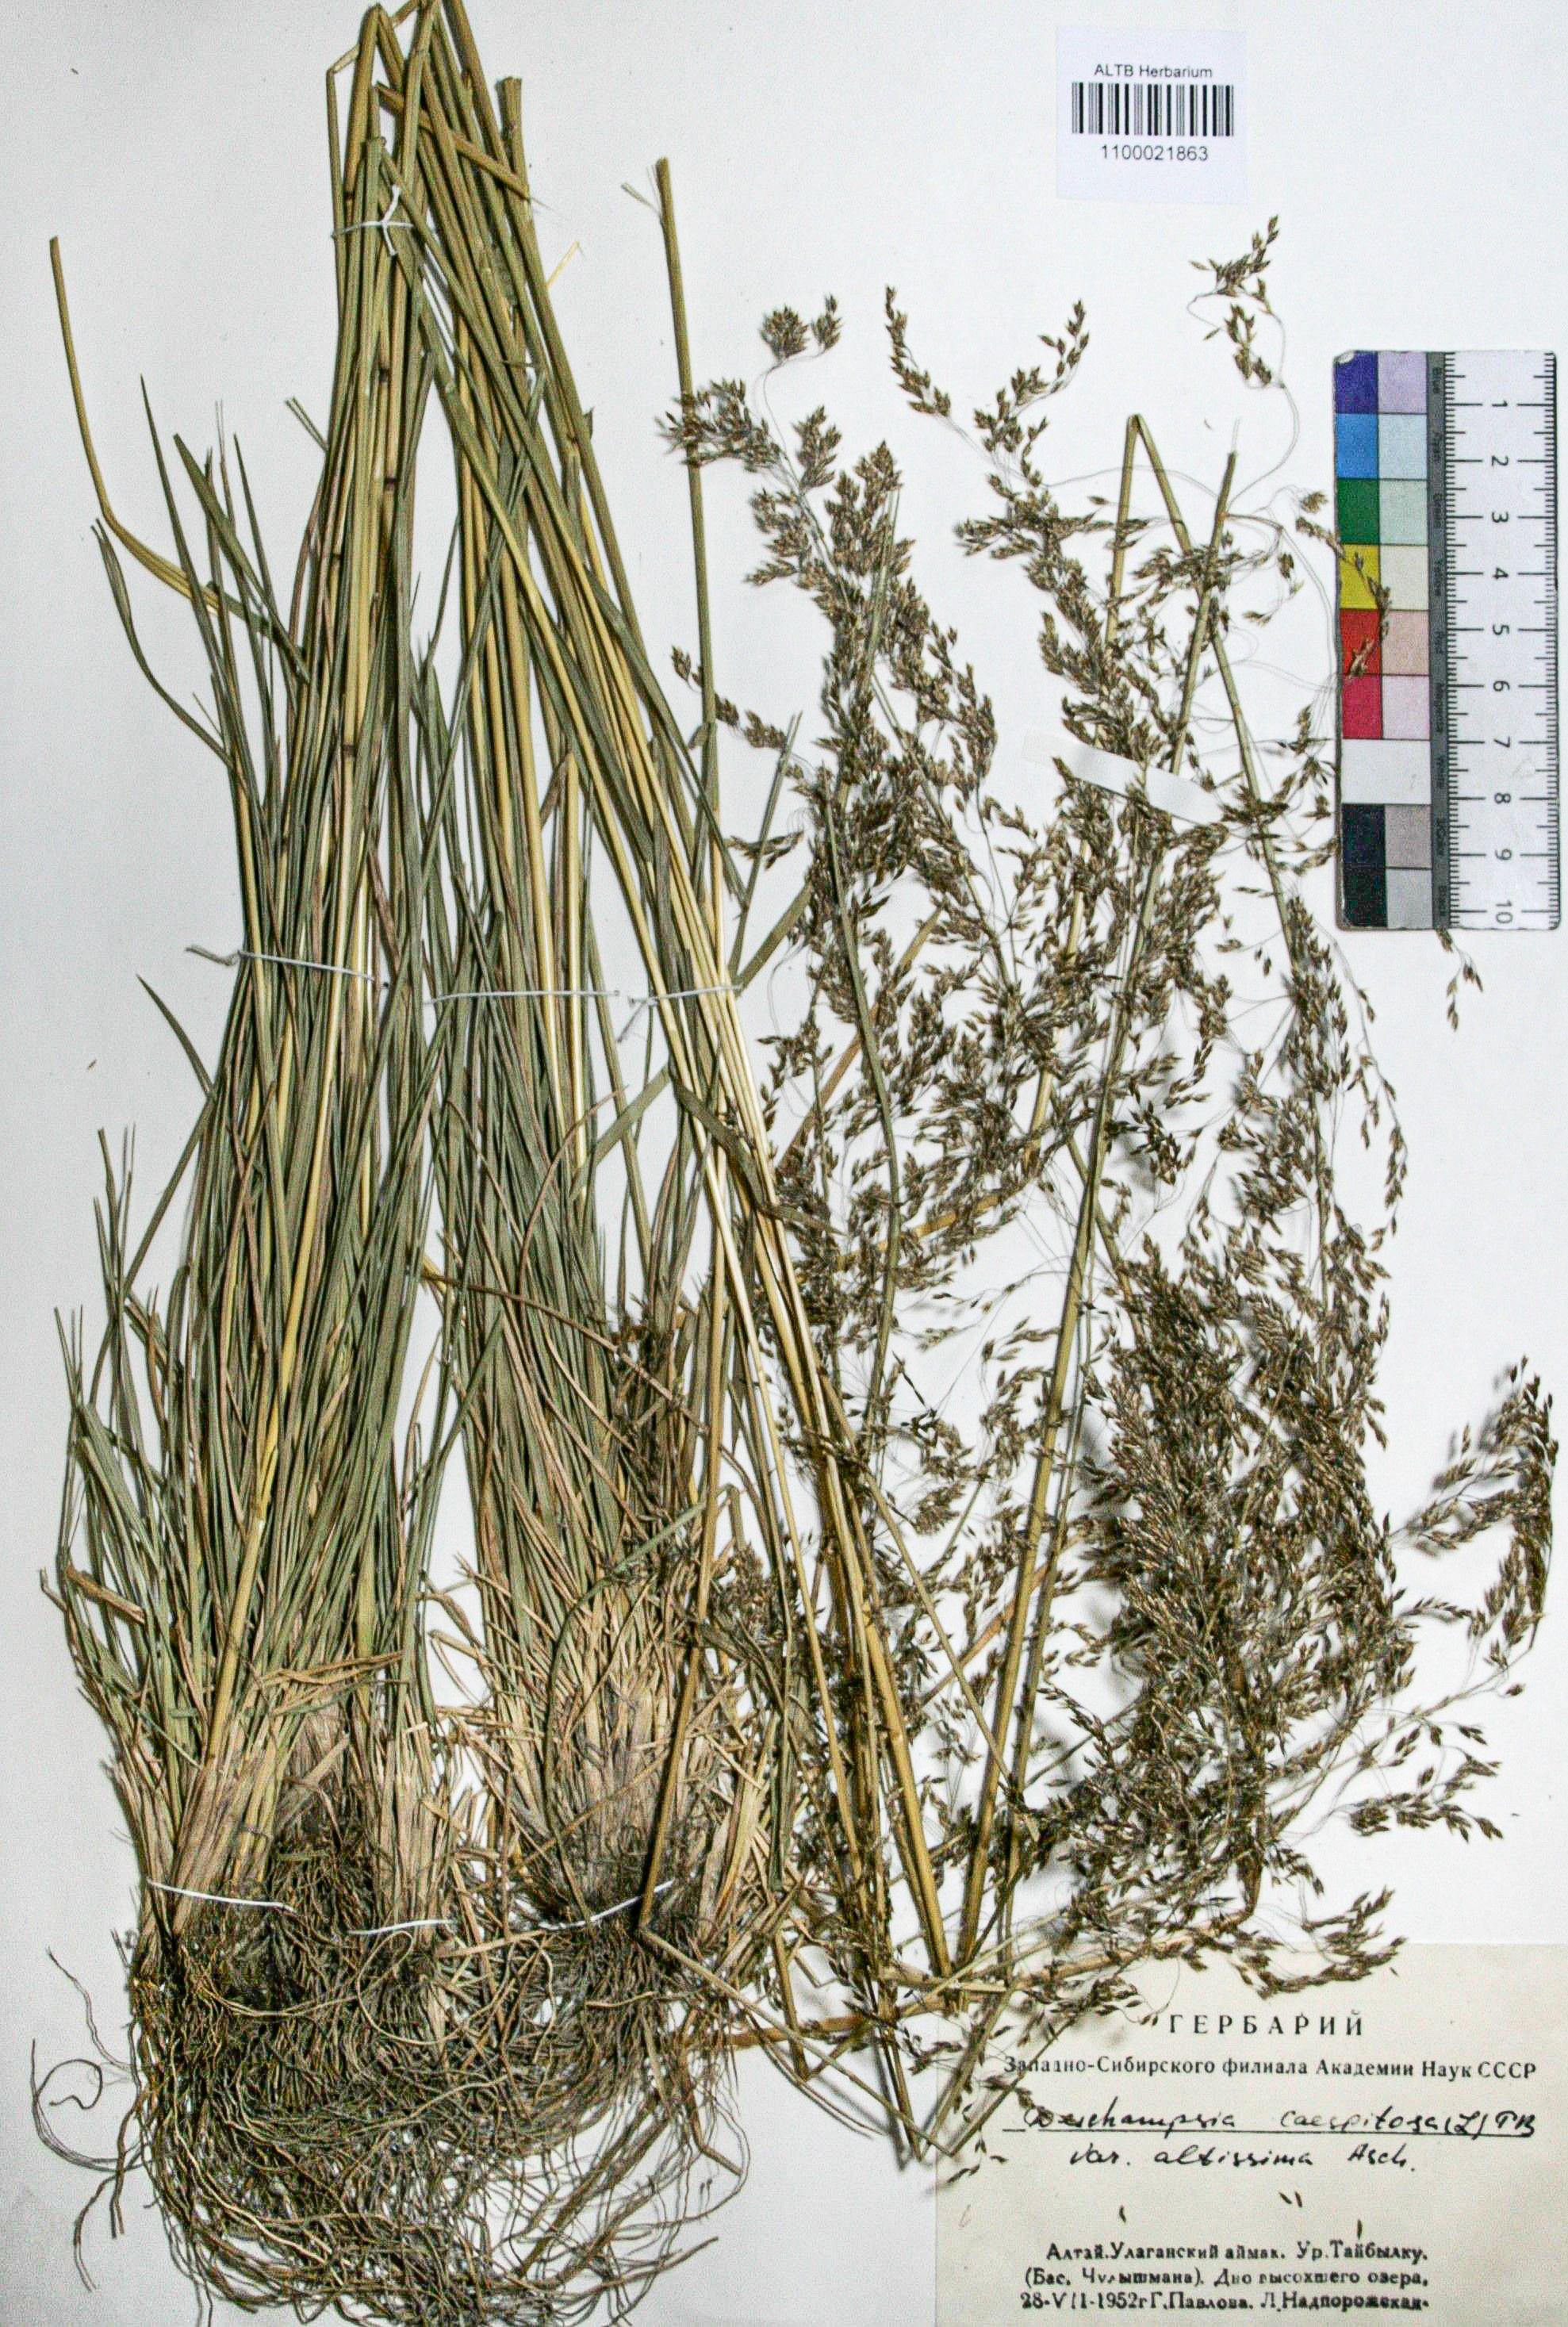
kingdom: Plantae
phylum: Tracheophyta
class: Liliopsida
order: Poales
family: Poaceae
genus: Deschampsia
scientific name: Deschampsia cespitosa
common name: Tufted hair-grass
